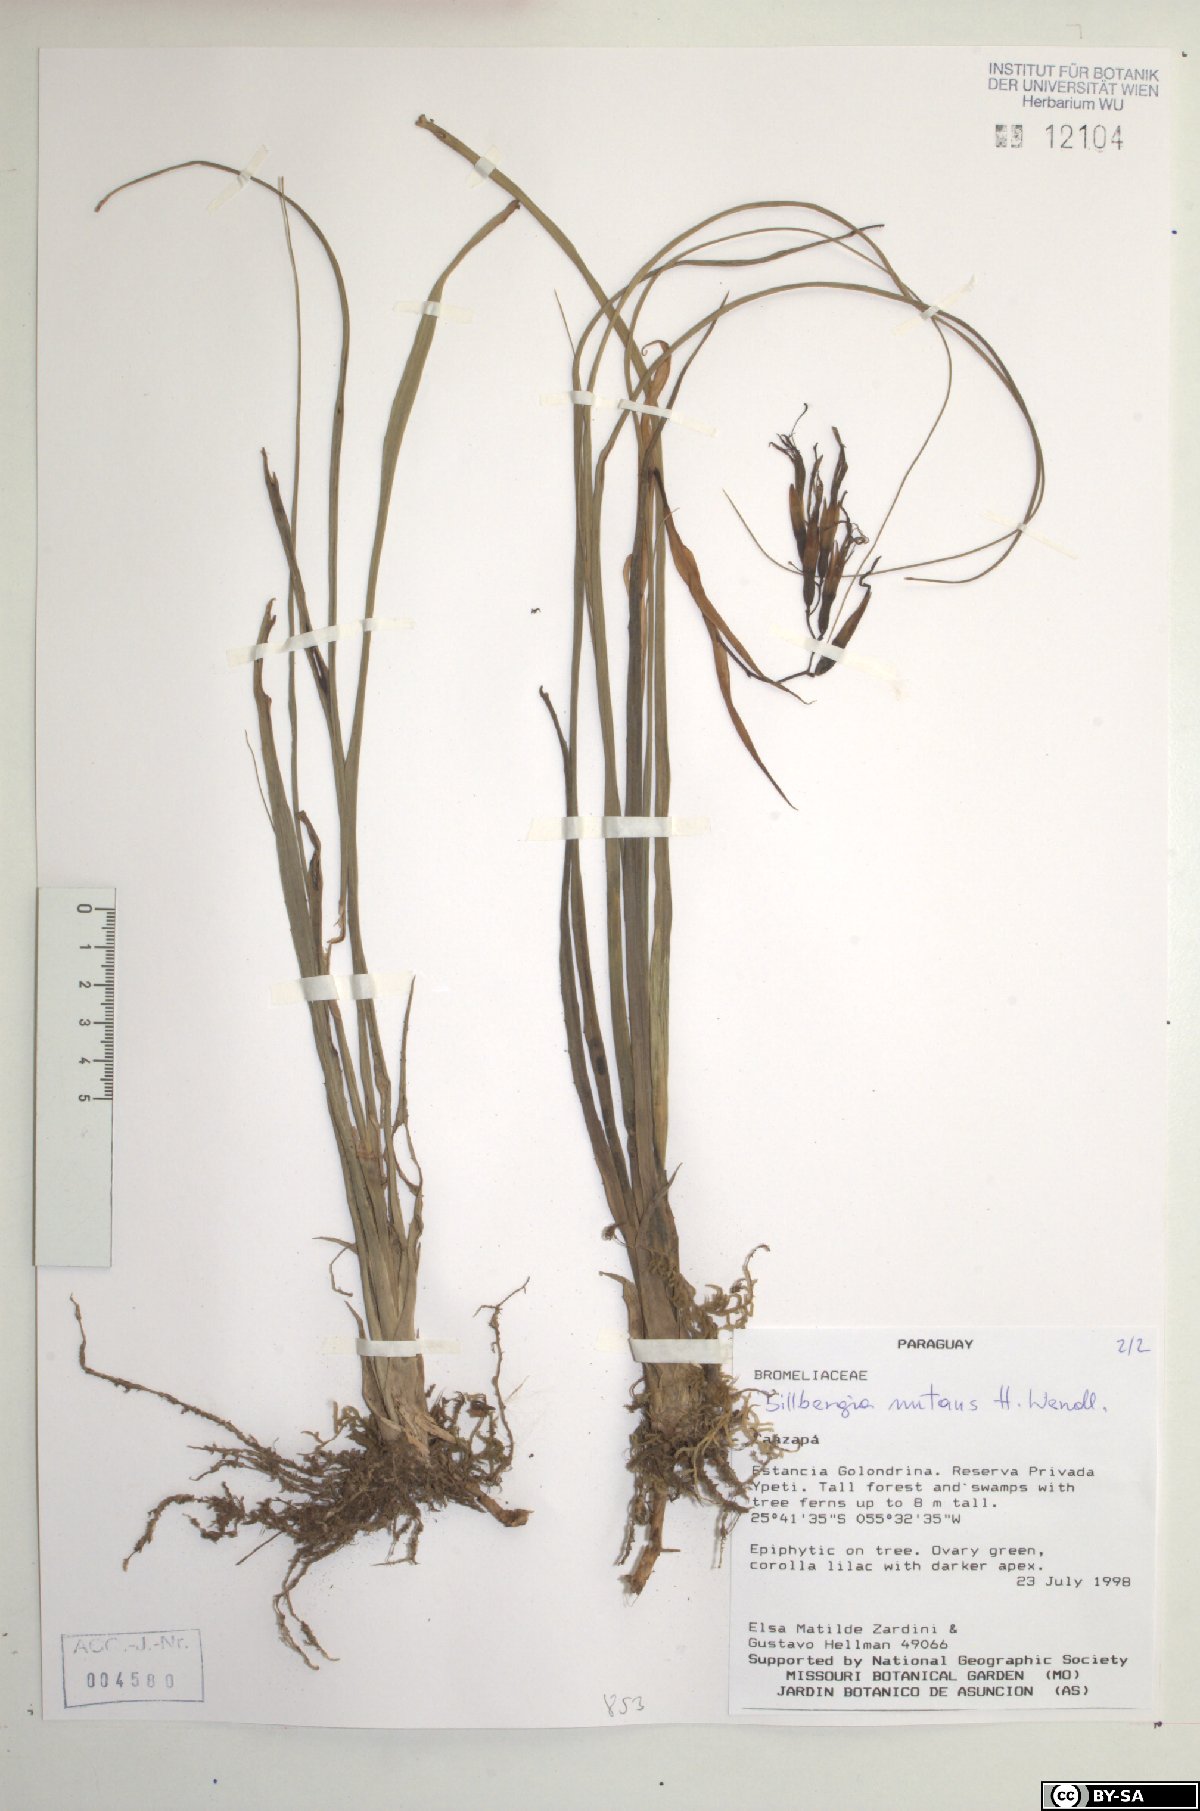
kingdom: Plantae
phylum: Tracheophyta
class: Liliopsida
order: Poales
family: Bromeliaceae
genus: Billbergia
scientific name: Billbergia nutans
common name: Friendship-plant
